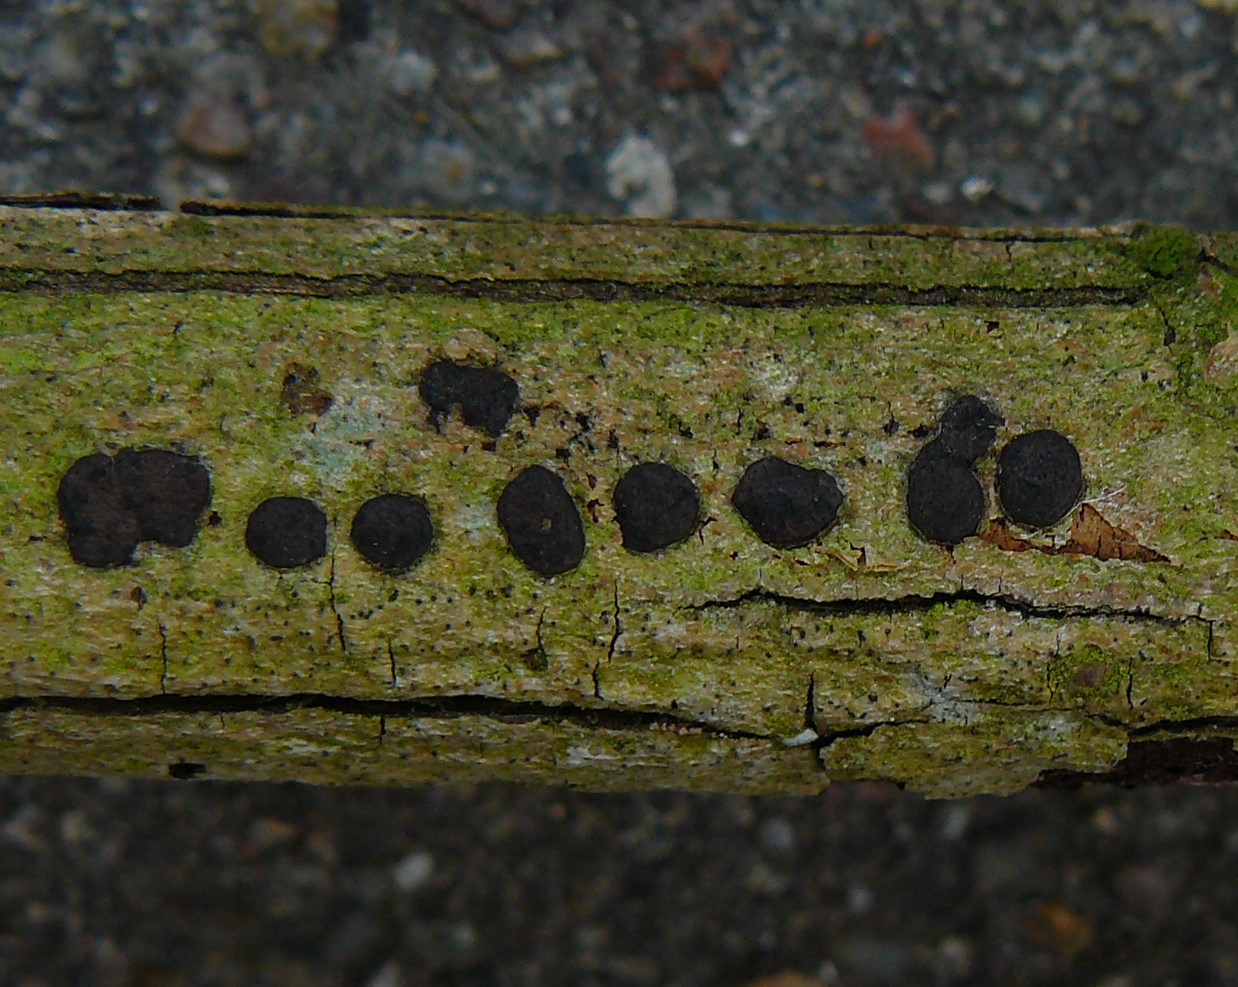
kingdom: Fungi
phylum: Ascomycota
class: Sordariomycetes
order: Xylariales
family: Diatrypaceae
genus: Diatrype
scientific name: Diatrype bullata
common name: pile-kulskorpe
